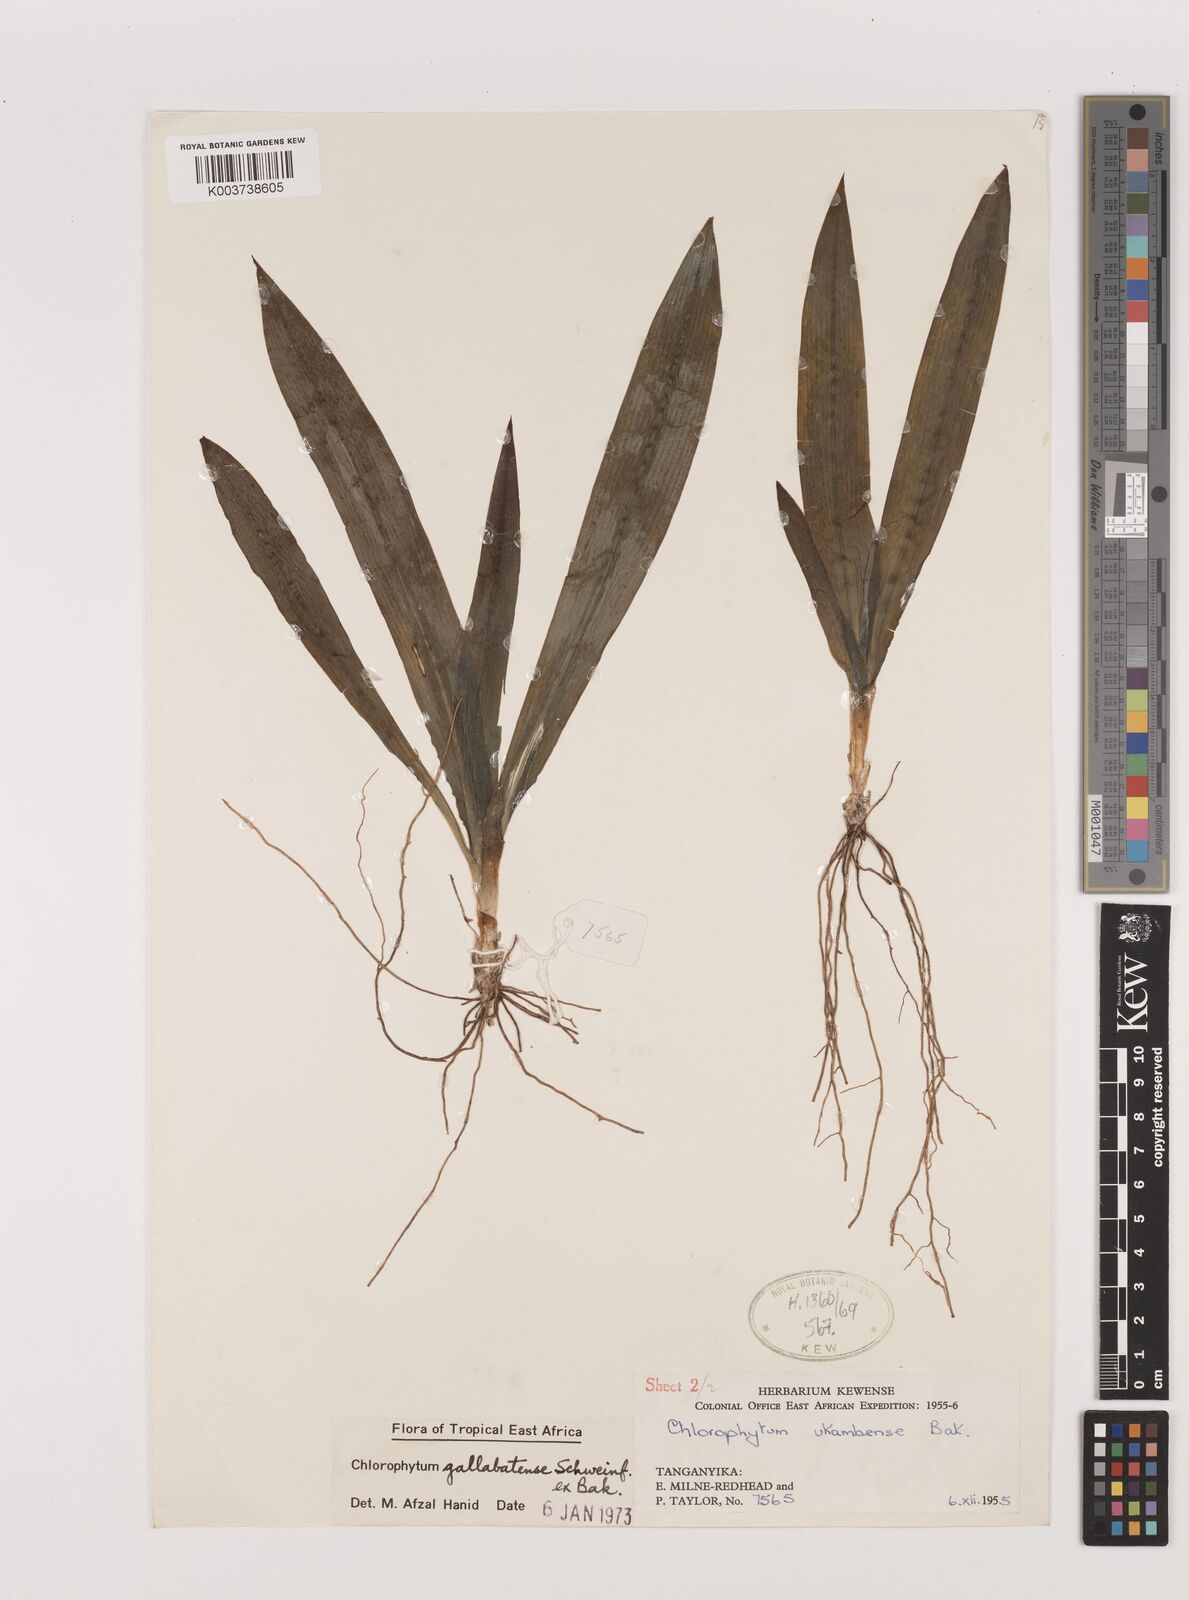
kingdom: Plantae
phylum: Tracheophyta
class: Liliopsida
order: Asparagales
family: Asparagaceae
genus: Chlorophytum
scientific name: Chlorophytum gallabatense
